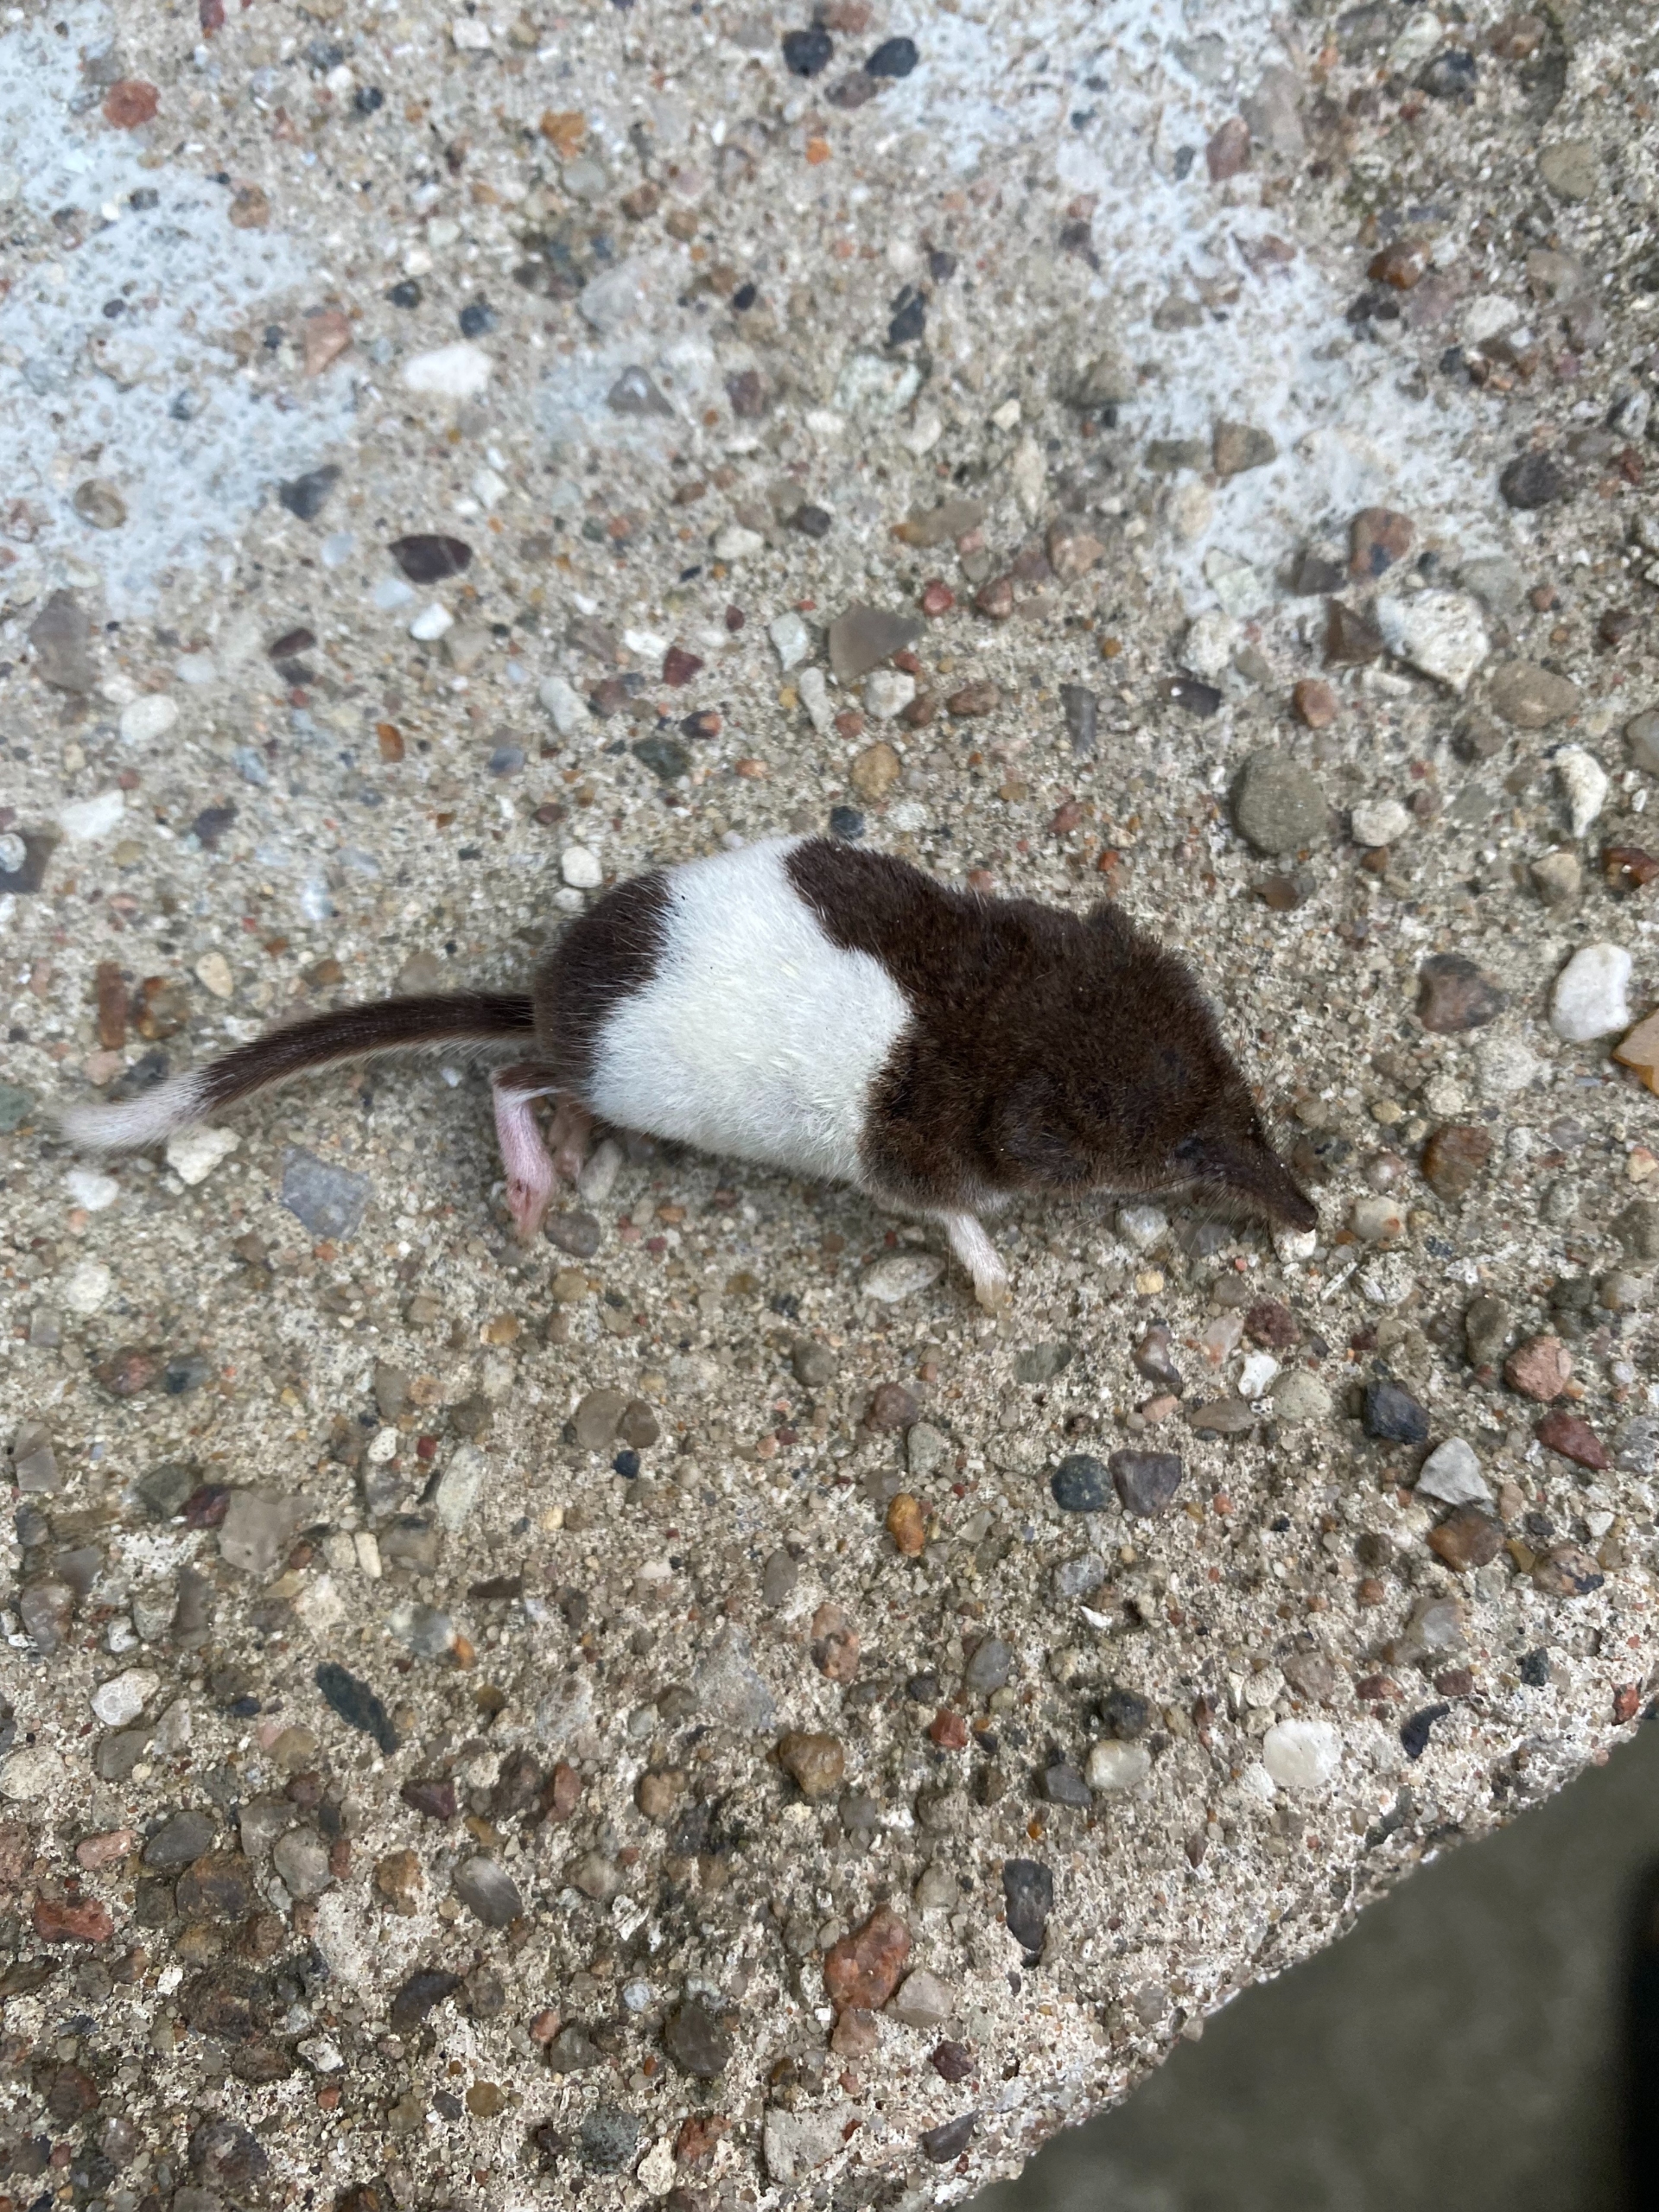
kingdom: Animalia
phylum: Chordata
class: Mammalia
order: Soricomorpha
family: Soricidae
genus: Sorex
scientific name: Sorex minutus
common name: Dværgspidsmus
